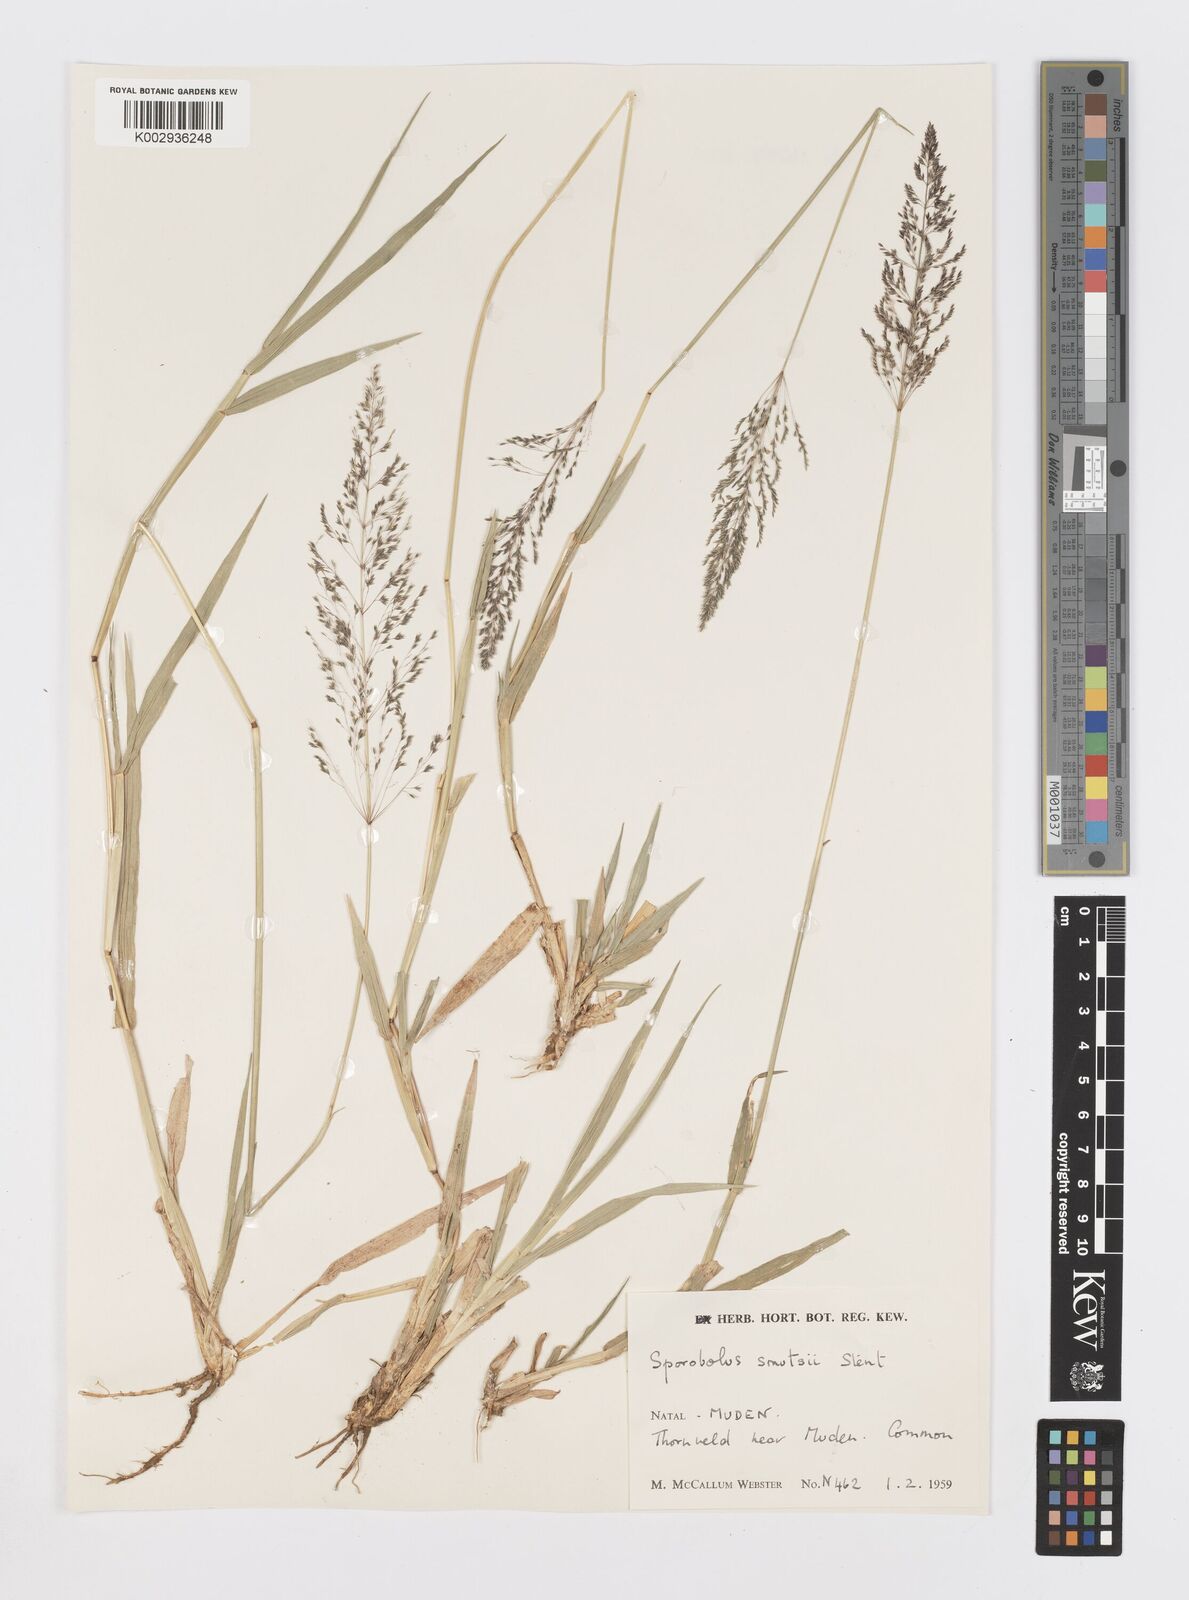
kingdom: Plantae
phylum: Tracheophyta
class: Liliopsida
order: Poales
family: Poaceae
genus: Sporobolus
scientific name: Sporobolus ioclados
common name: Pan dropseed
